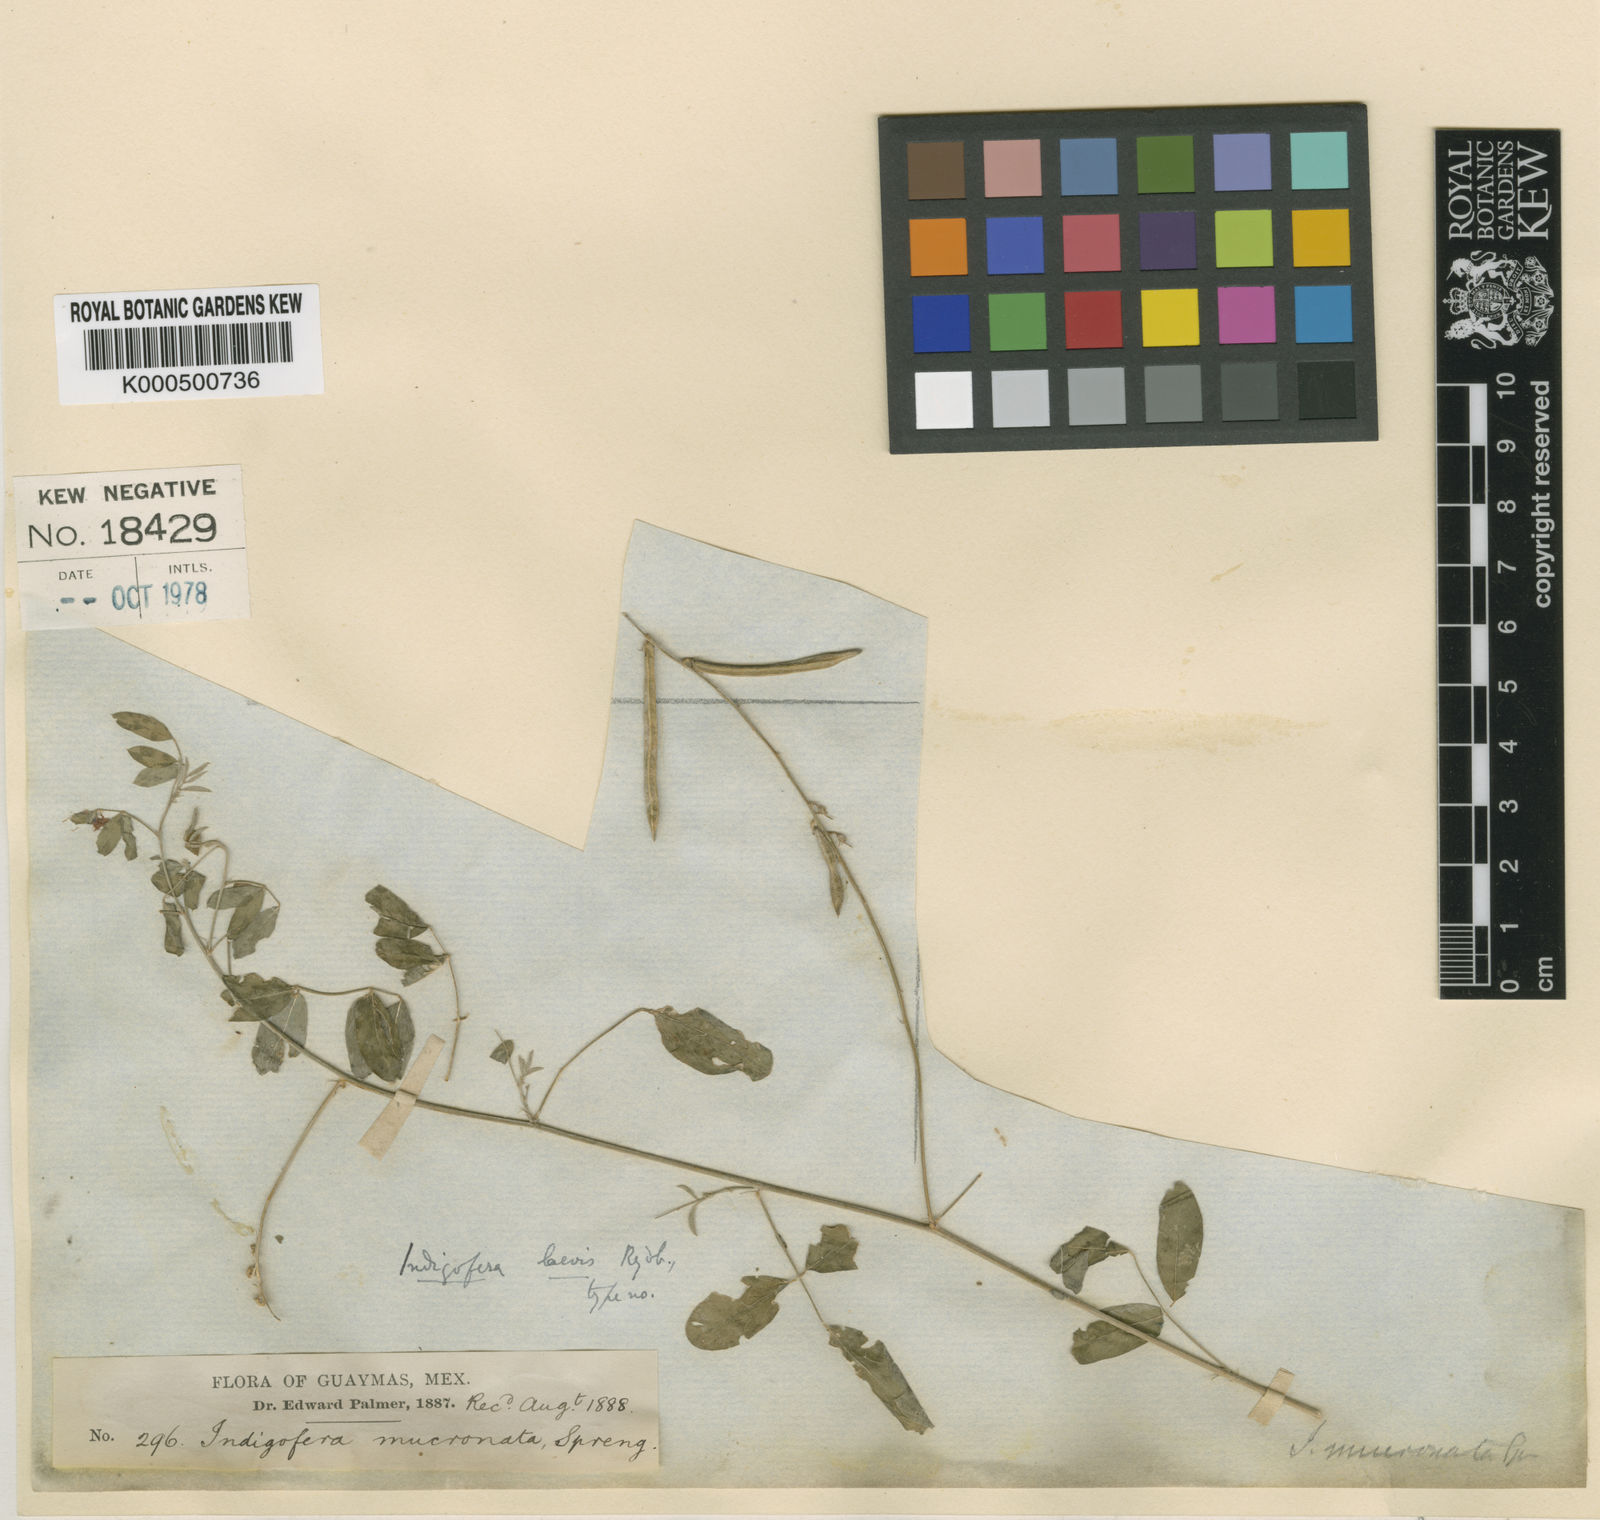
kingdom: Plantae
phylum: Tracheophyta
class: Magnoliopsida
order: Fabales
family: Fabaceae
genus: Indigofera
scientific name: Indigofera subulata
